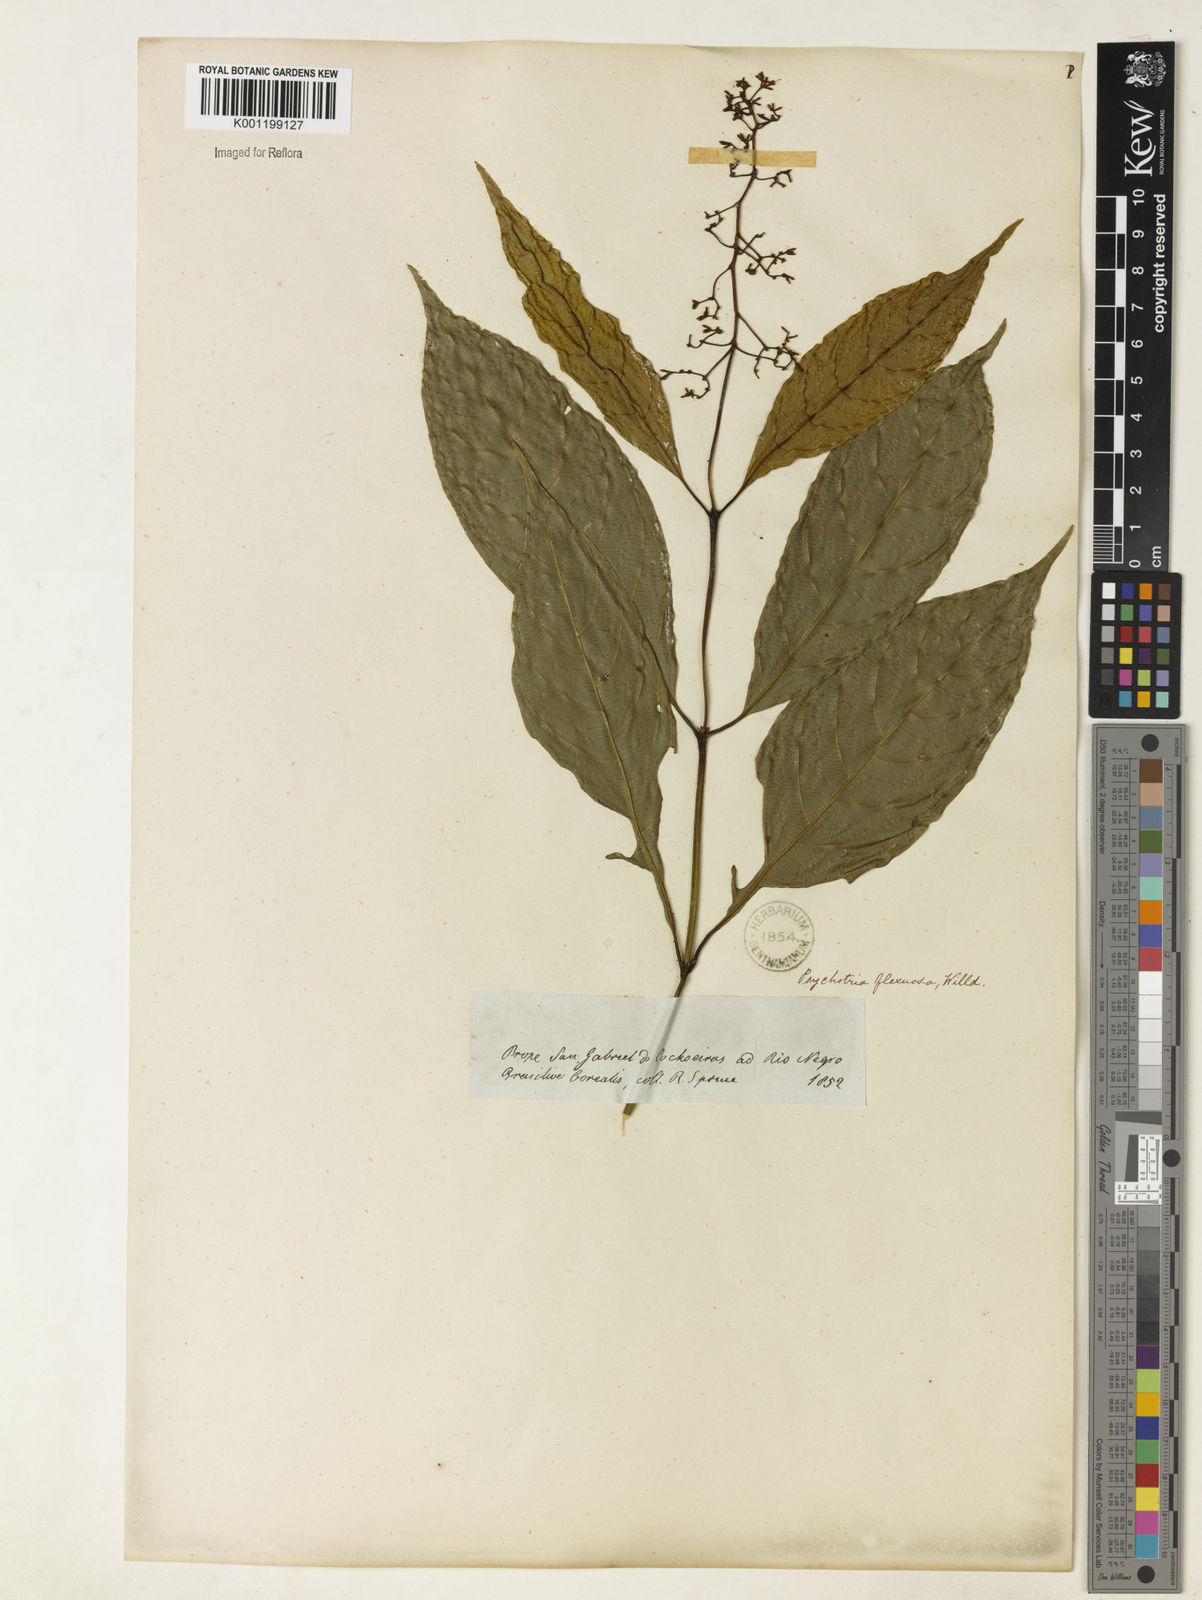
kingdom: Plantae
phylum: Tracheophyta
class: Magnoliopsida
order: Gentianales
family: Rubiaceae
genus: Palicourea
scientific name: Palicourea paniculata
